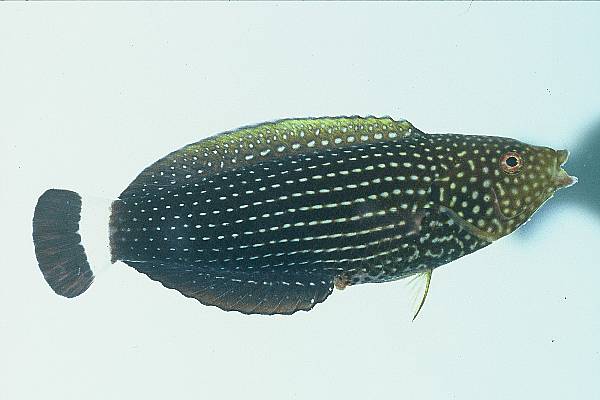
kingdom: Animalia
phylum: Chordata
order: Perciformes
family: Labridae
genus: Anampses
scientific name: Anampses lineatus
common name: Lined wrasse
